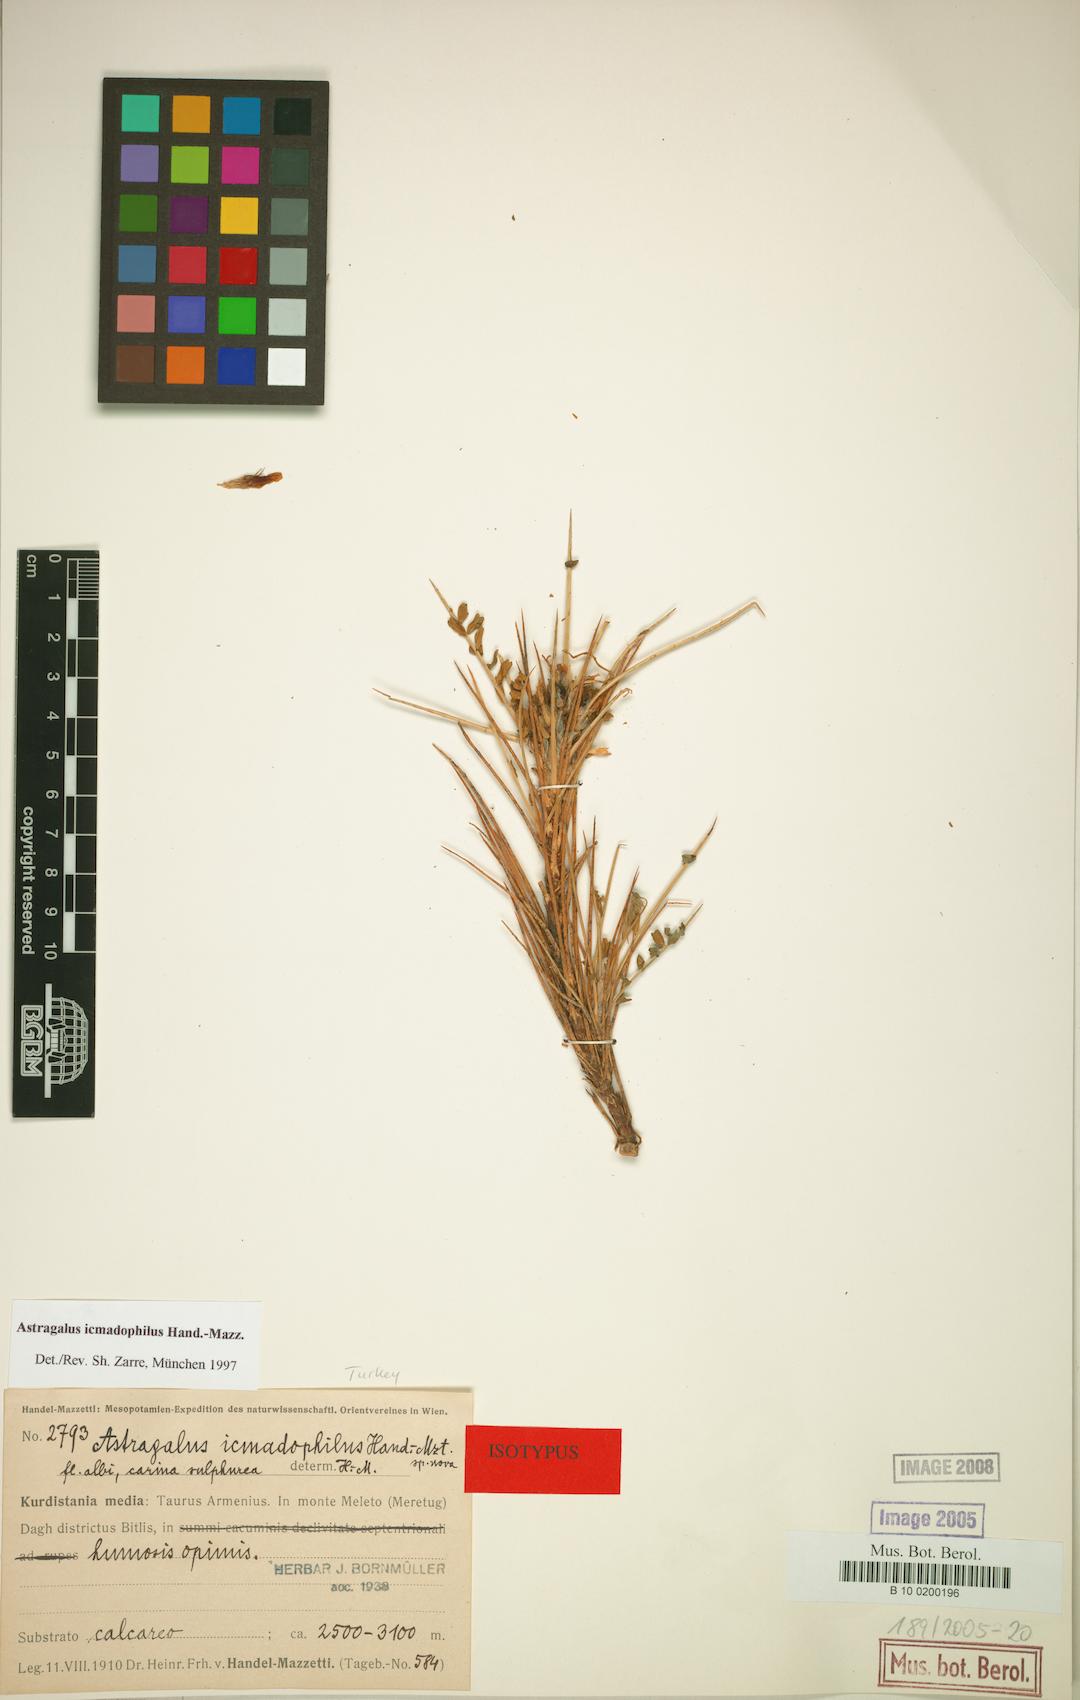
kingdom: Plantae
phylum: Tracheophyta
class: Magnoliopsida
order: Fabales
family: Fabaceae
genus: Astragalus
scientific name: Astragalus icmadophilus
